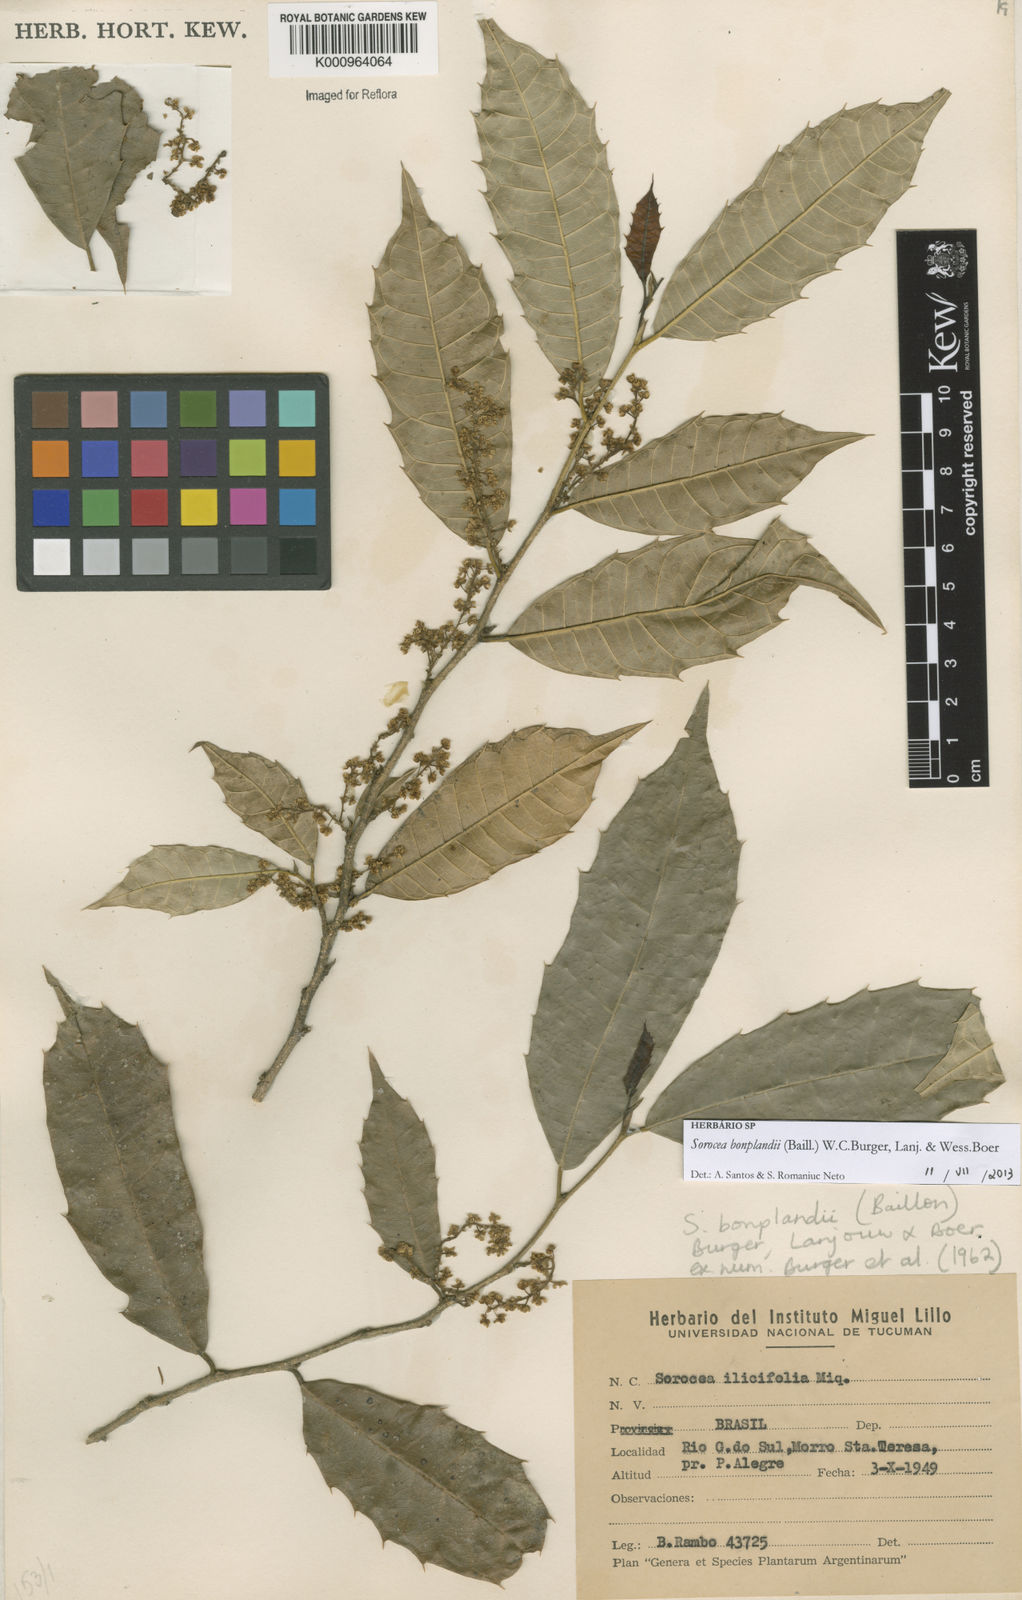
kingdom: Plantae
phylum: Tracheophyta
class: Magnoliopsida
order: Rosales
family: Moraceae
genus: Sorocea
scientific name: Sorocea
